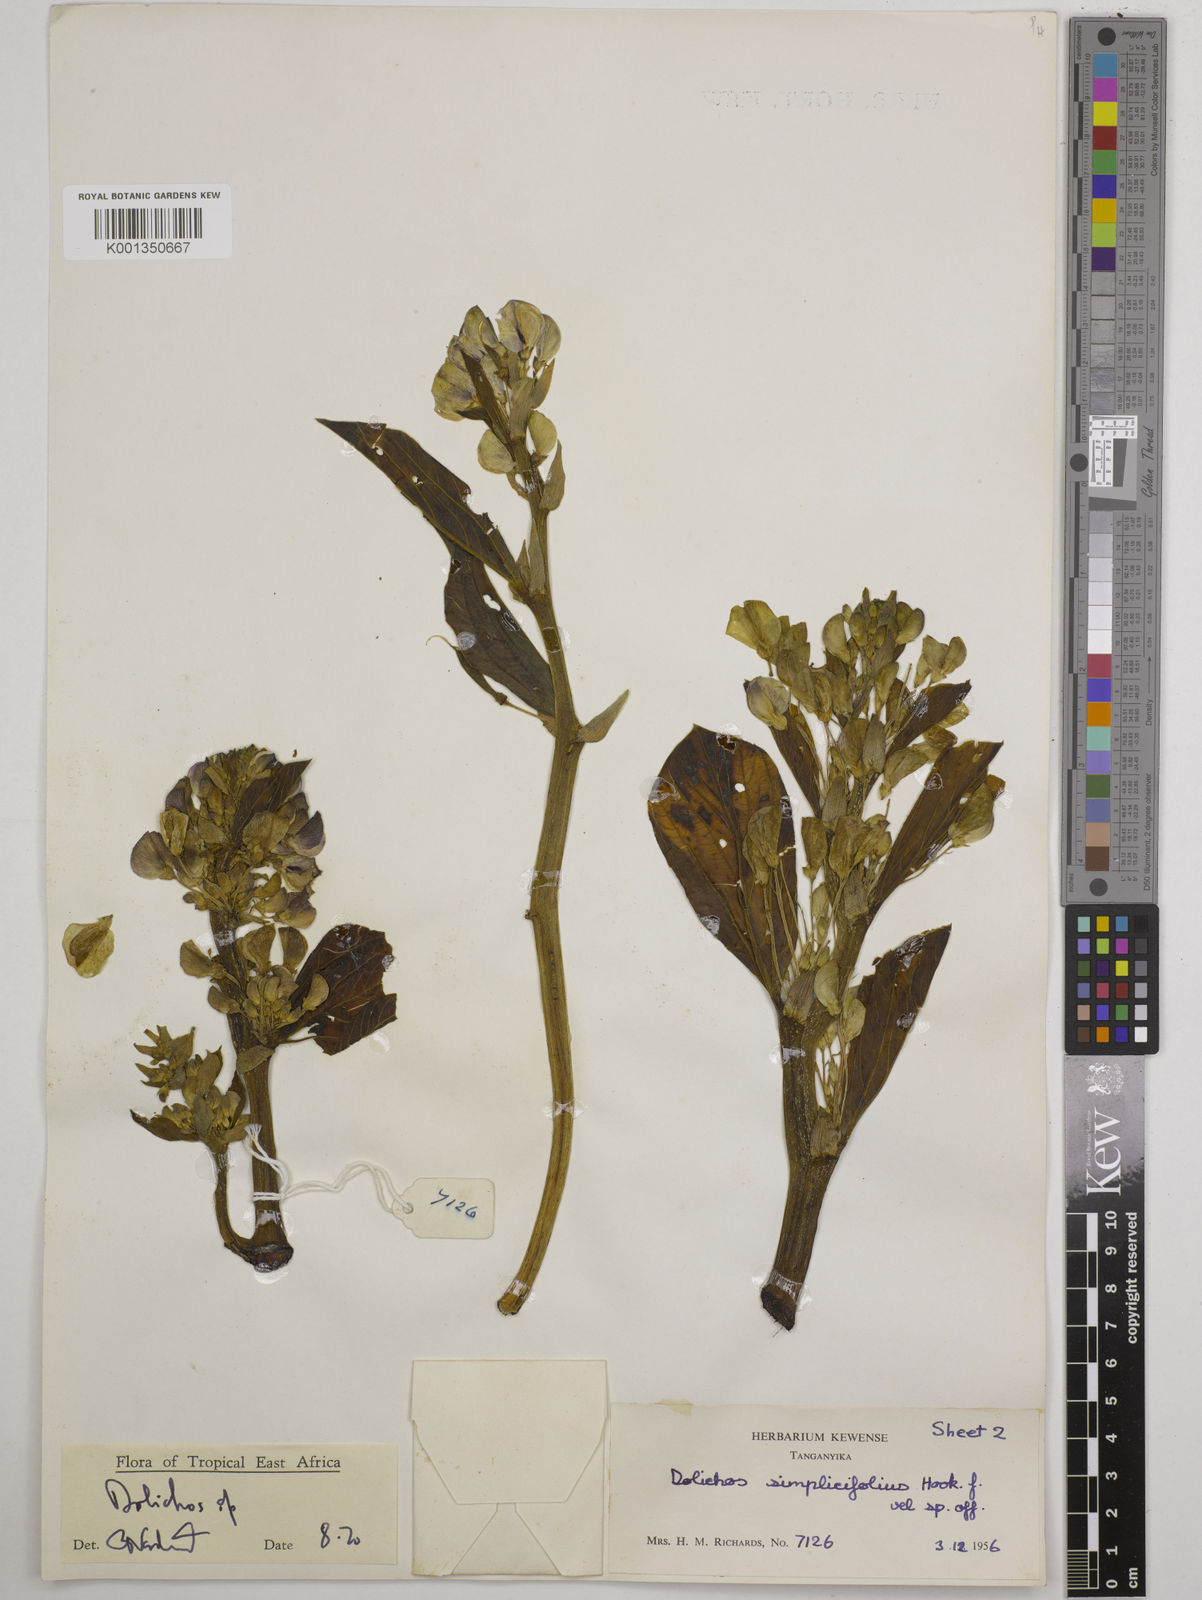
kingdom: Plantae
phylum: Tracheophyta
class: Magnoliopsida
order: Fabales
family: Fabaceae
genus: Dolichos
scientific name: Dolichos simplicifolius
